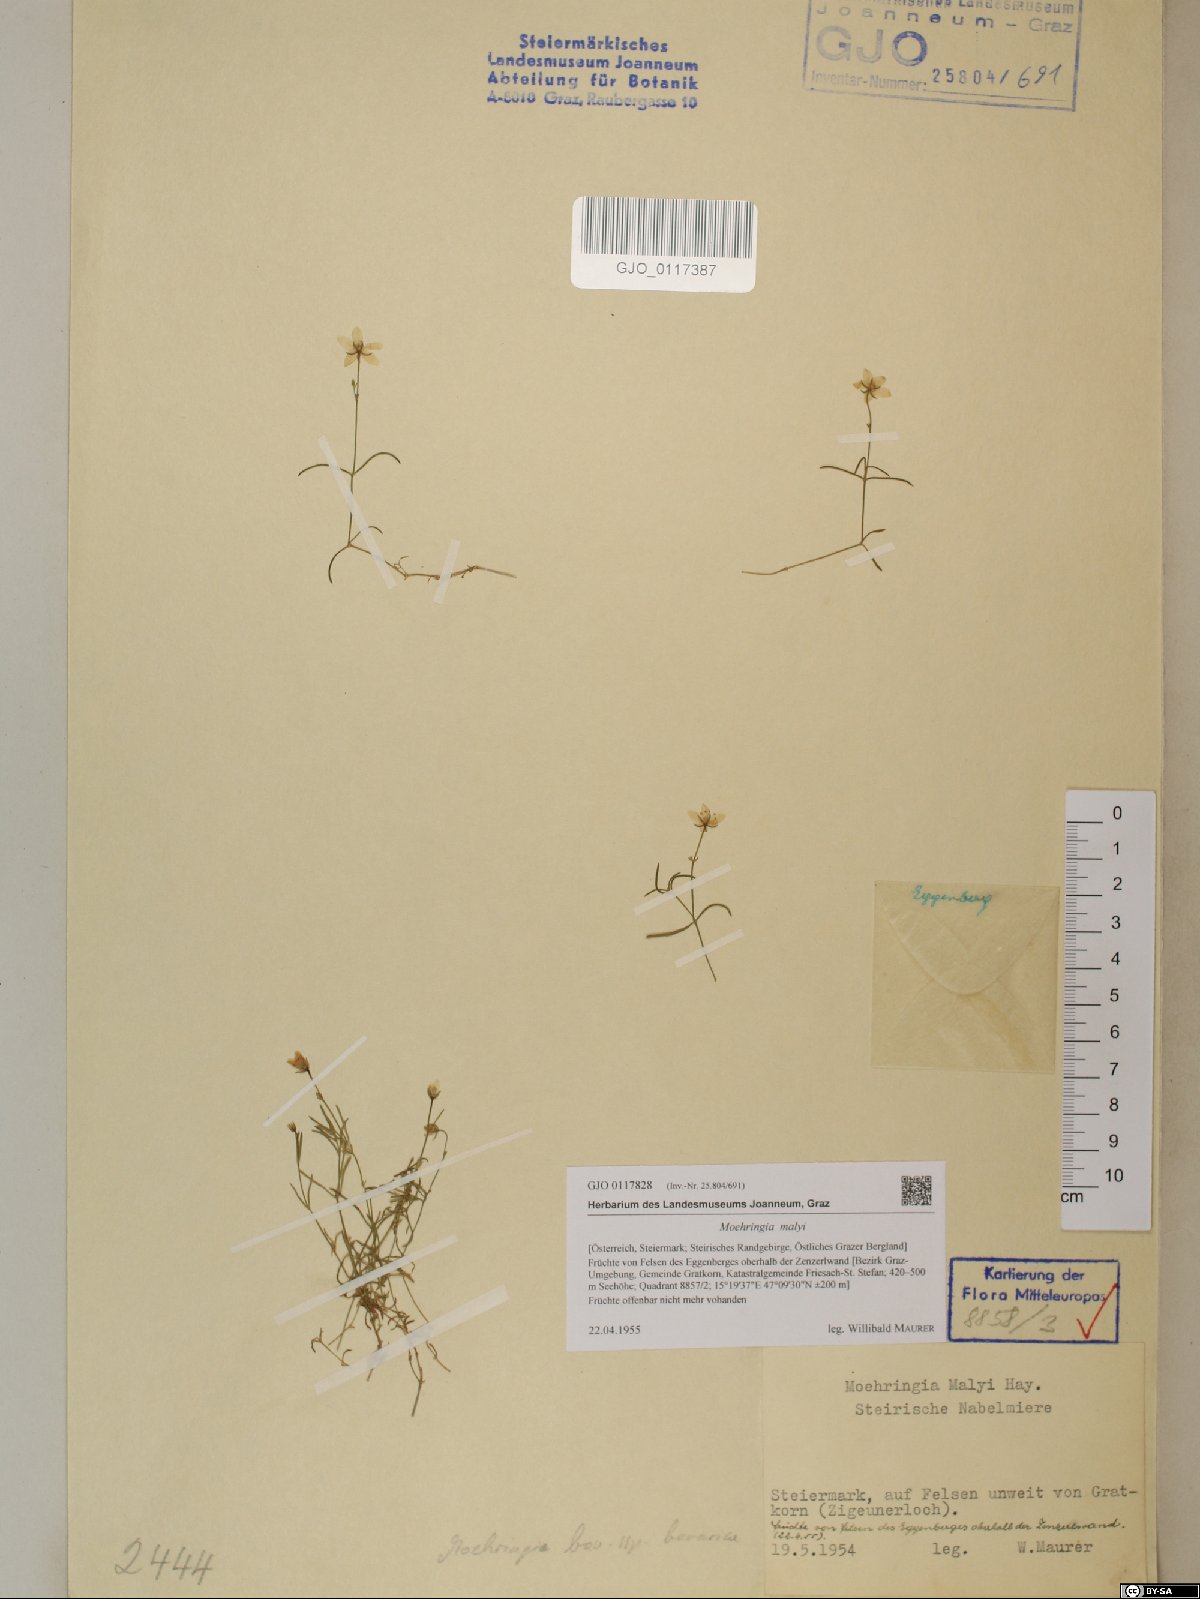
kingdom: Plantae
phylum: Tracheophyta
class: Magnoliopsida
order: Caryophyllales
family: Caryophyllaceae
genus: Moehringia
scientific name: Moehringia bavarica
